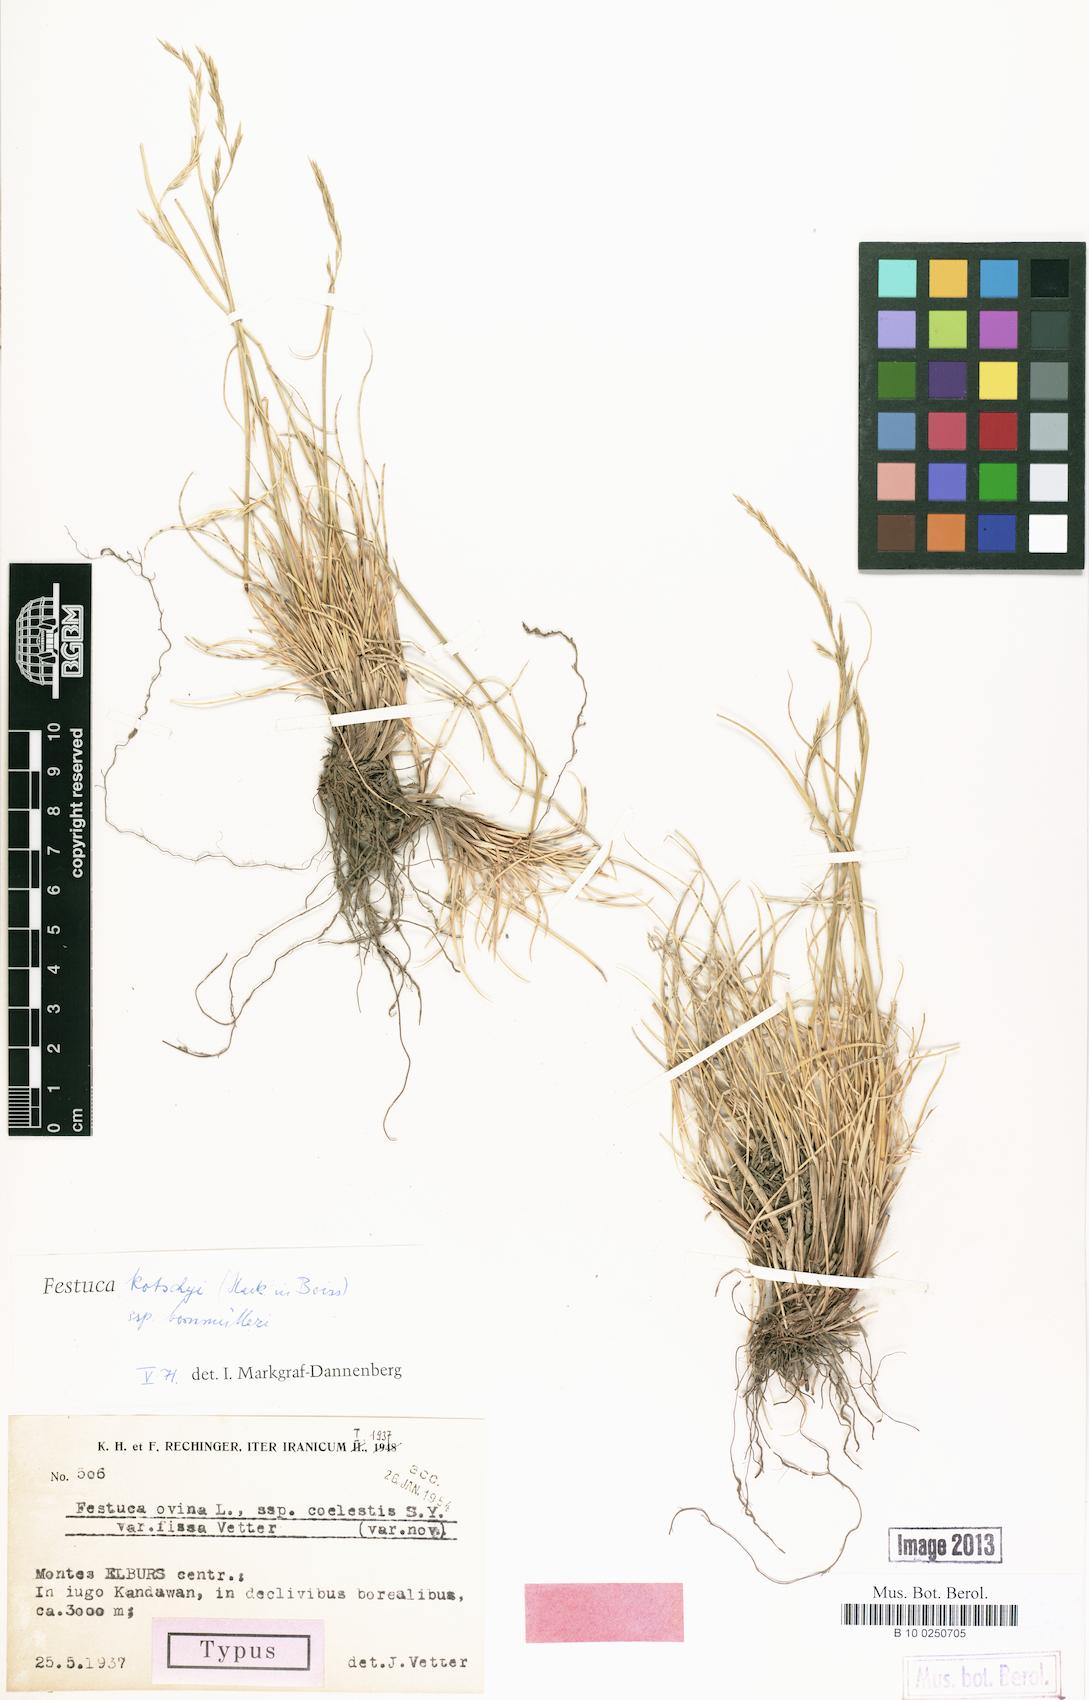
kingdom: Plantae
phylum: Tracheophyta
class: Liliopsida
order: Poales
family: Poaceae
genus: Festuca
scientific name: Festuca rupicola
